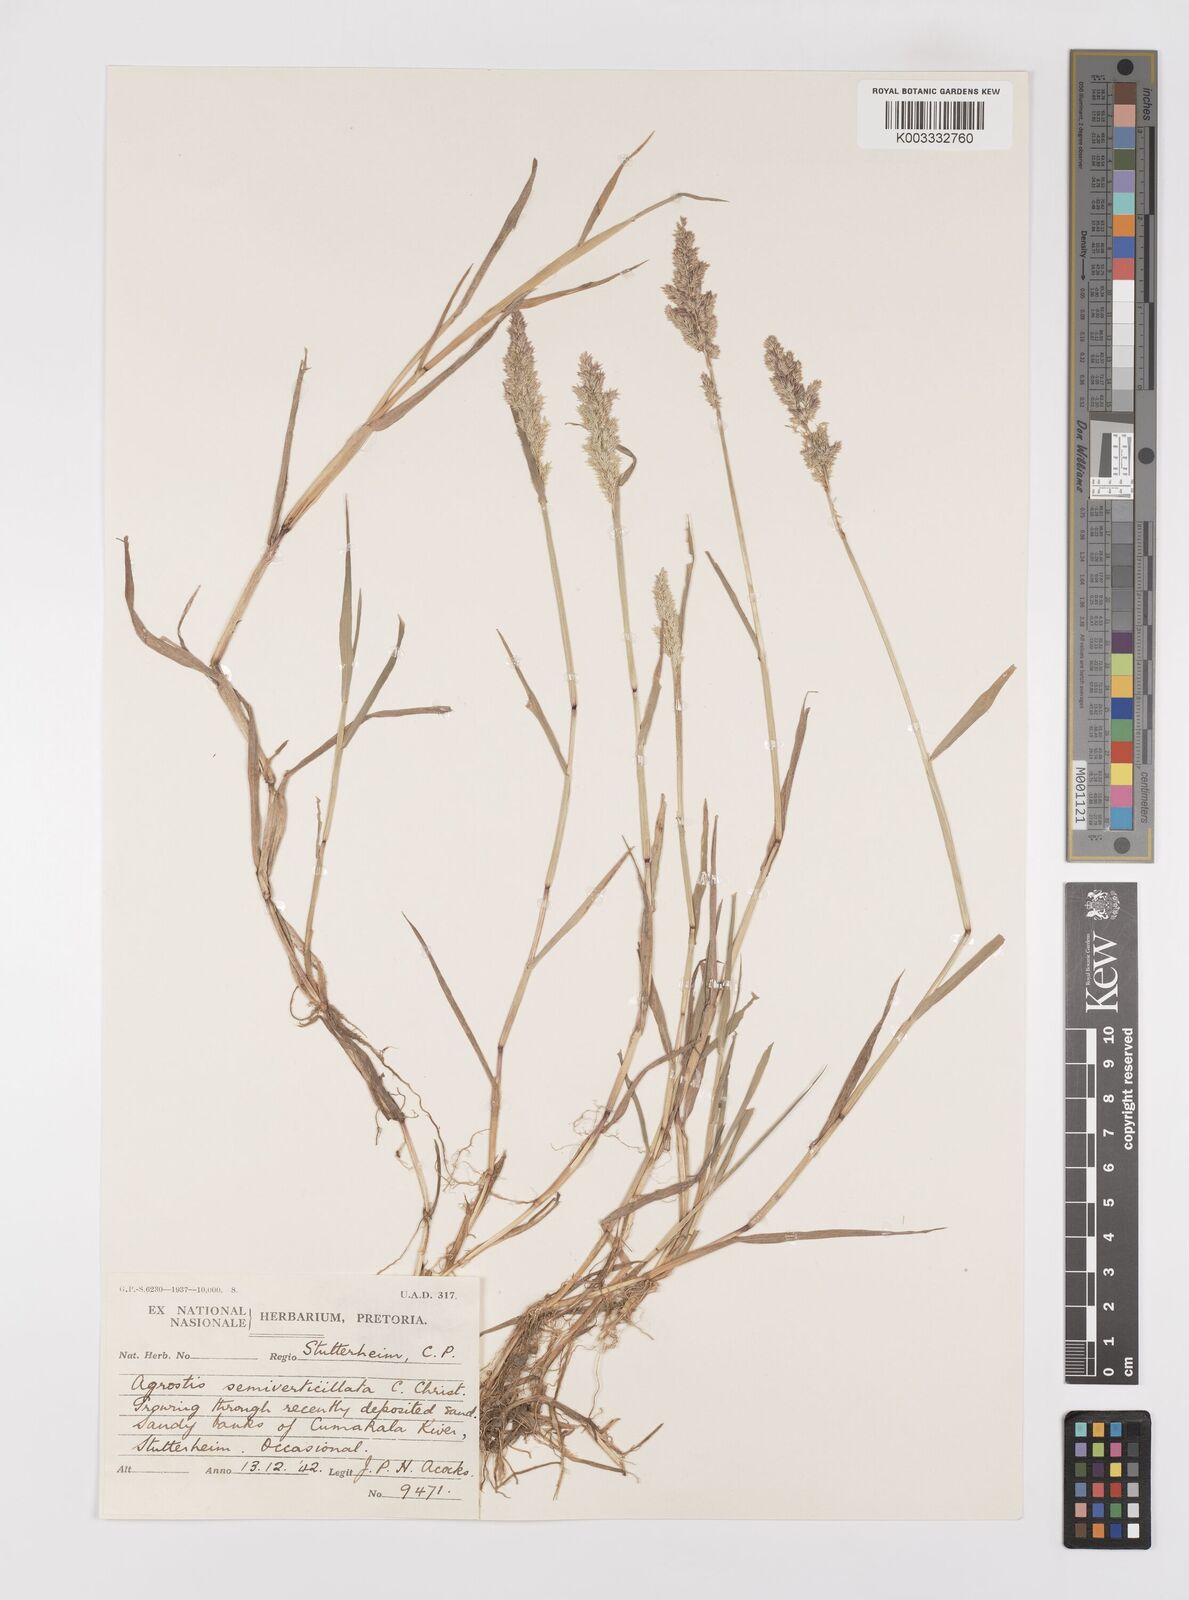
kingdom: Plantae
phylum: Tracheophyta
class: Liliopsida
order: Poales
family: Poaceae
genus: Polypogon
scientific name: Polypogon viridis
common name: Water bent
